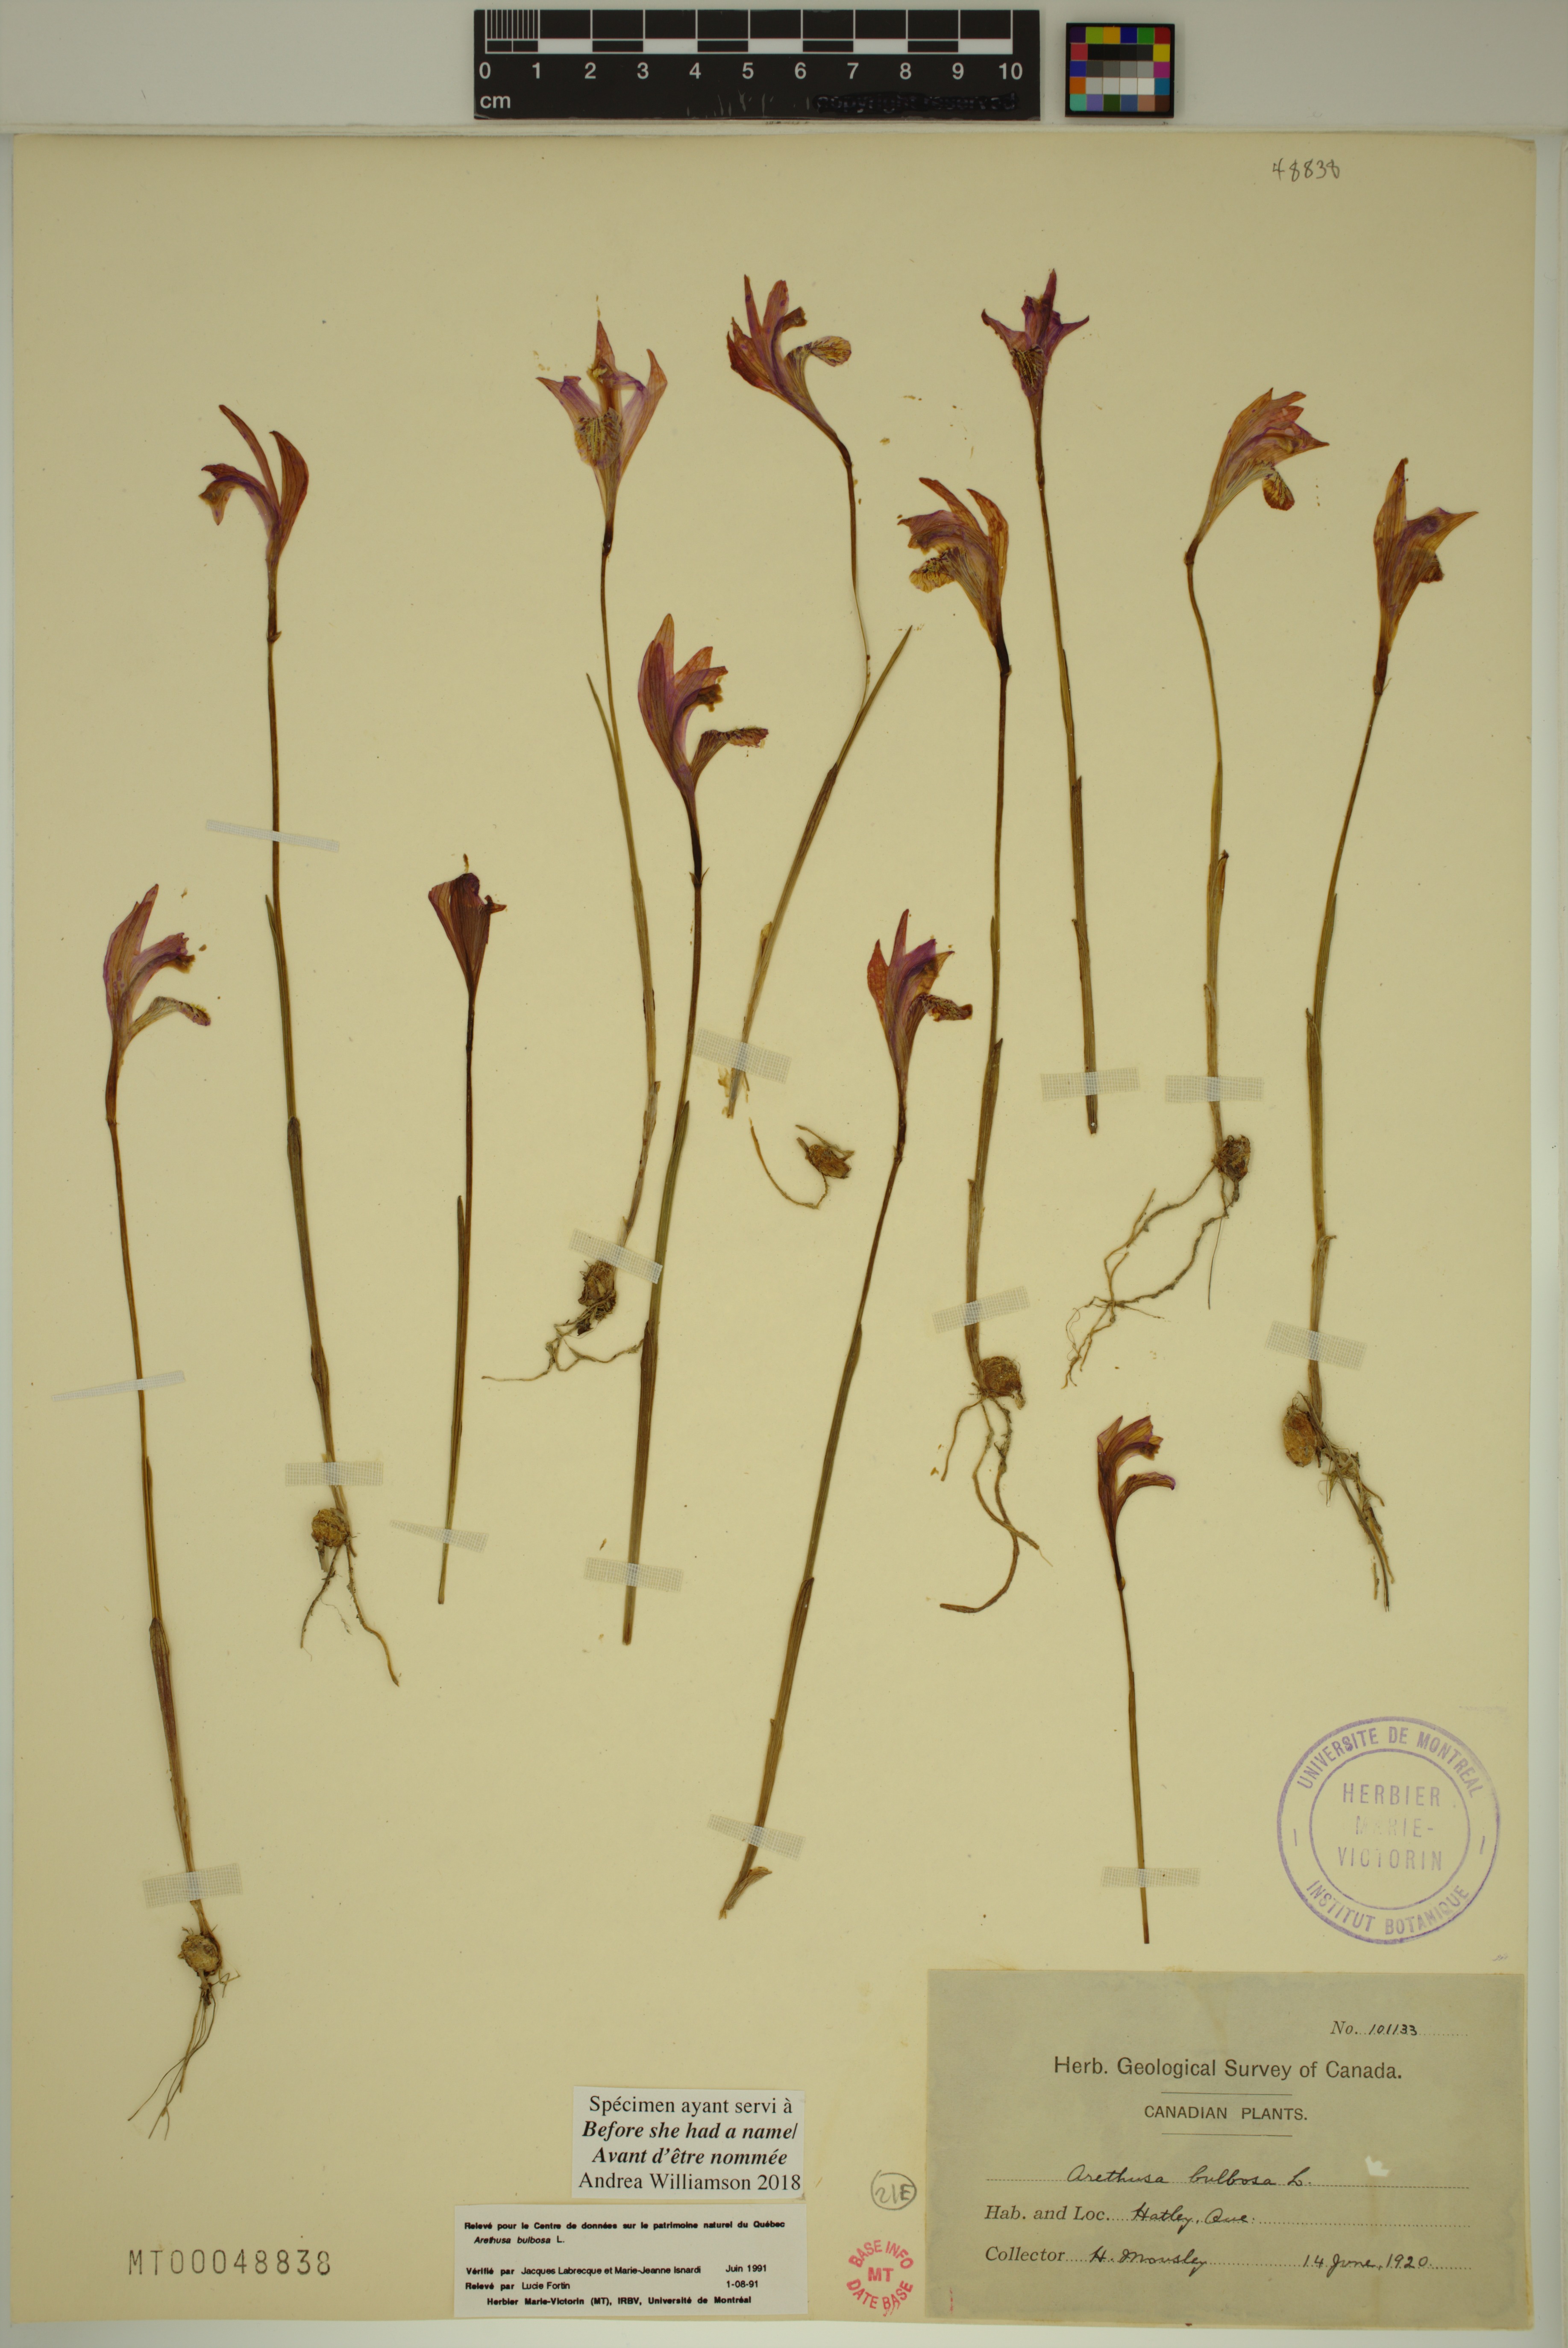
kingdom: Plantae
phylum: Tracheophyta
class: Liliopsida
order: Asparagales
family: Orchidaceae
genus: Arethusa
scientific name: Arethusa bulbosa
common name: Arethusa
